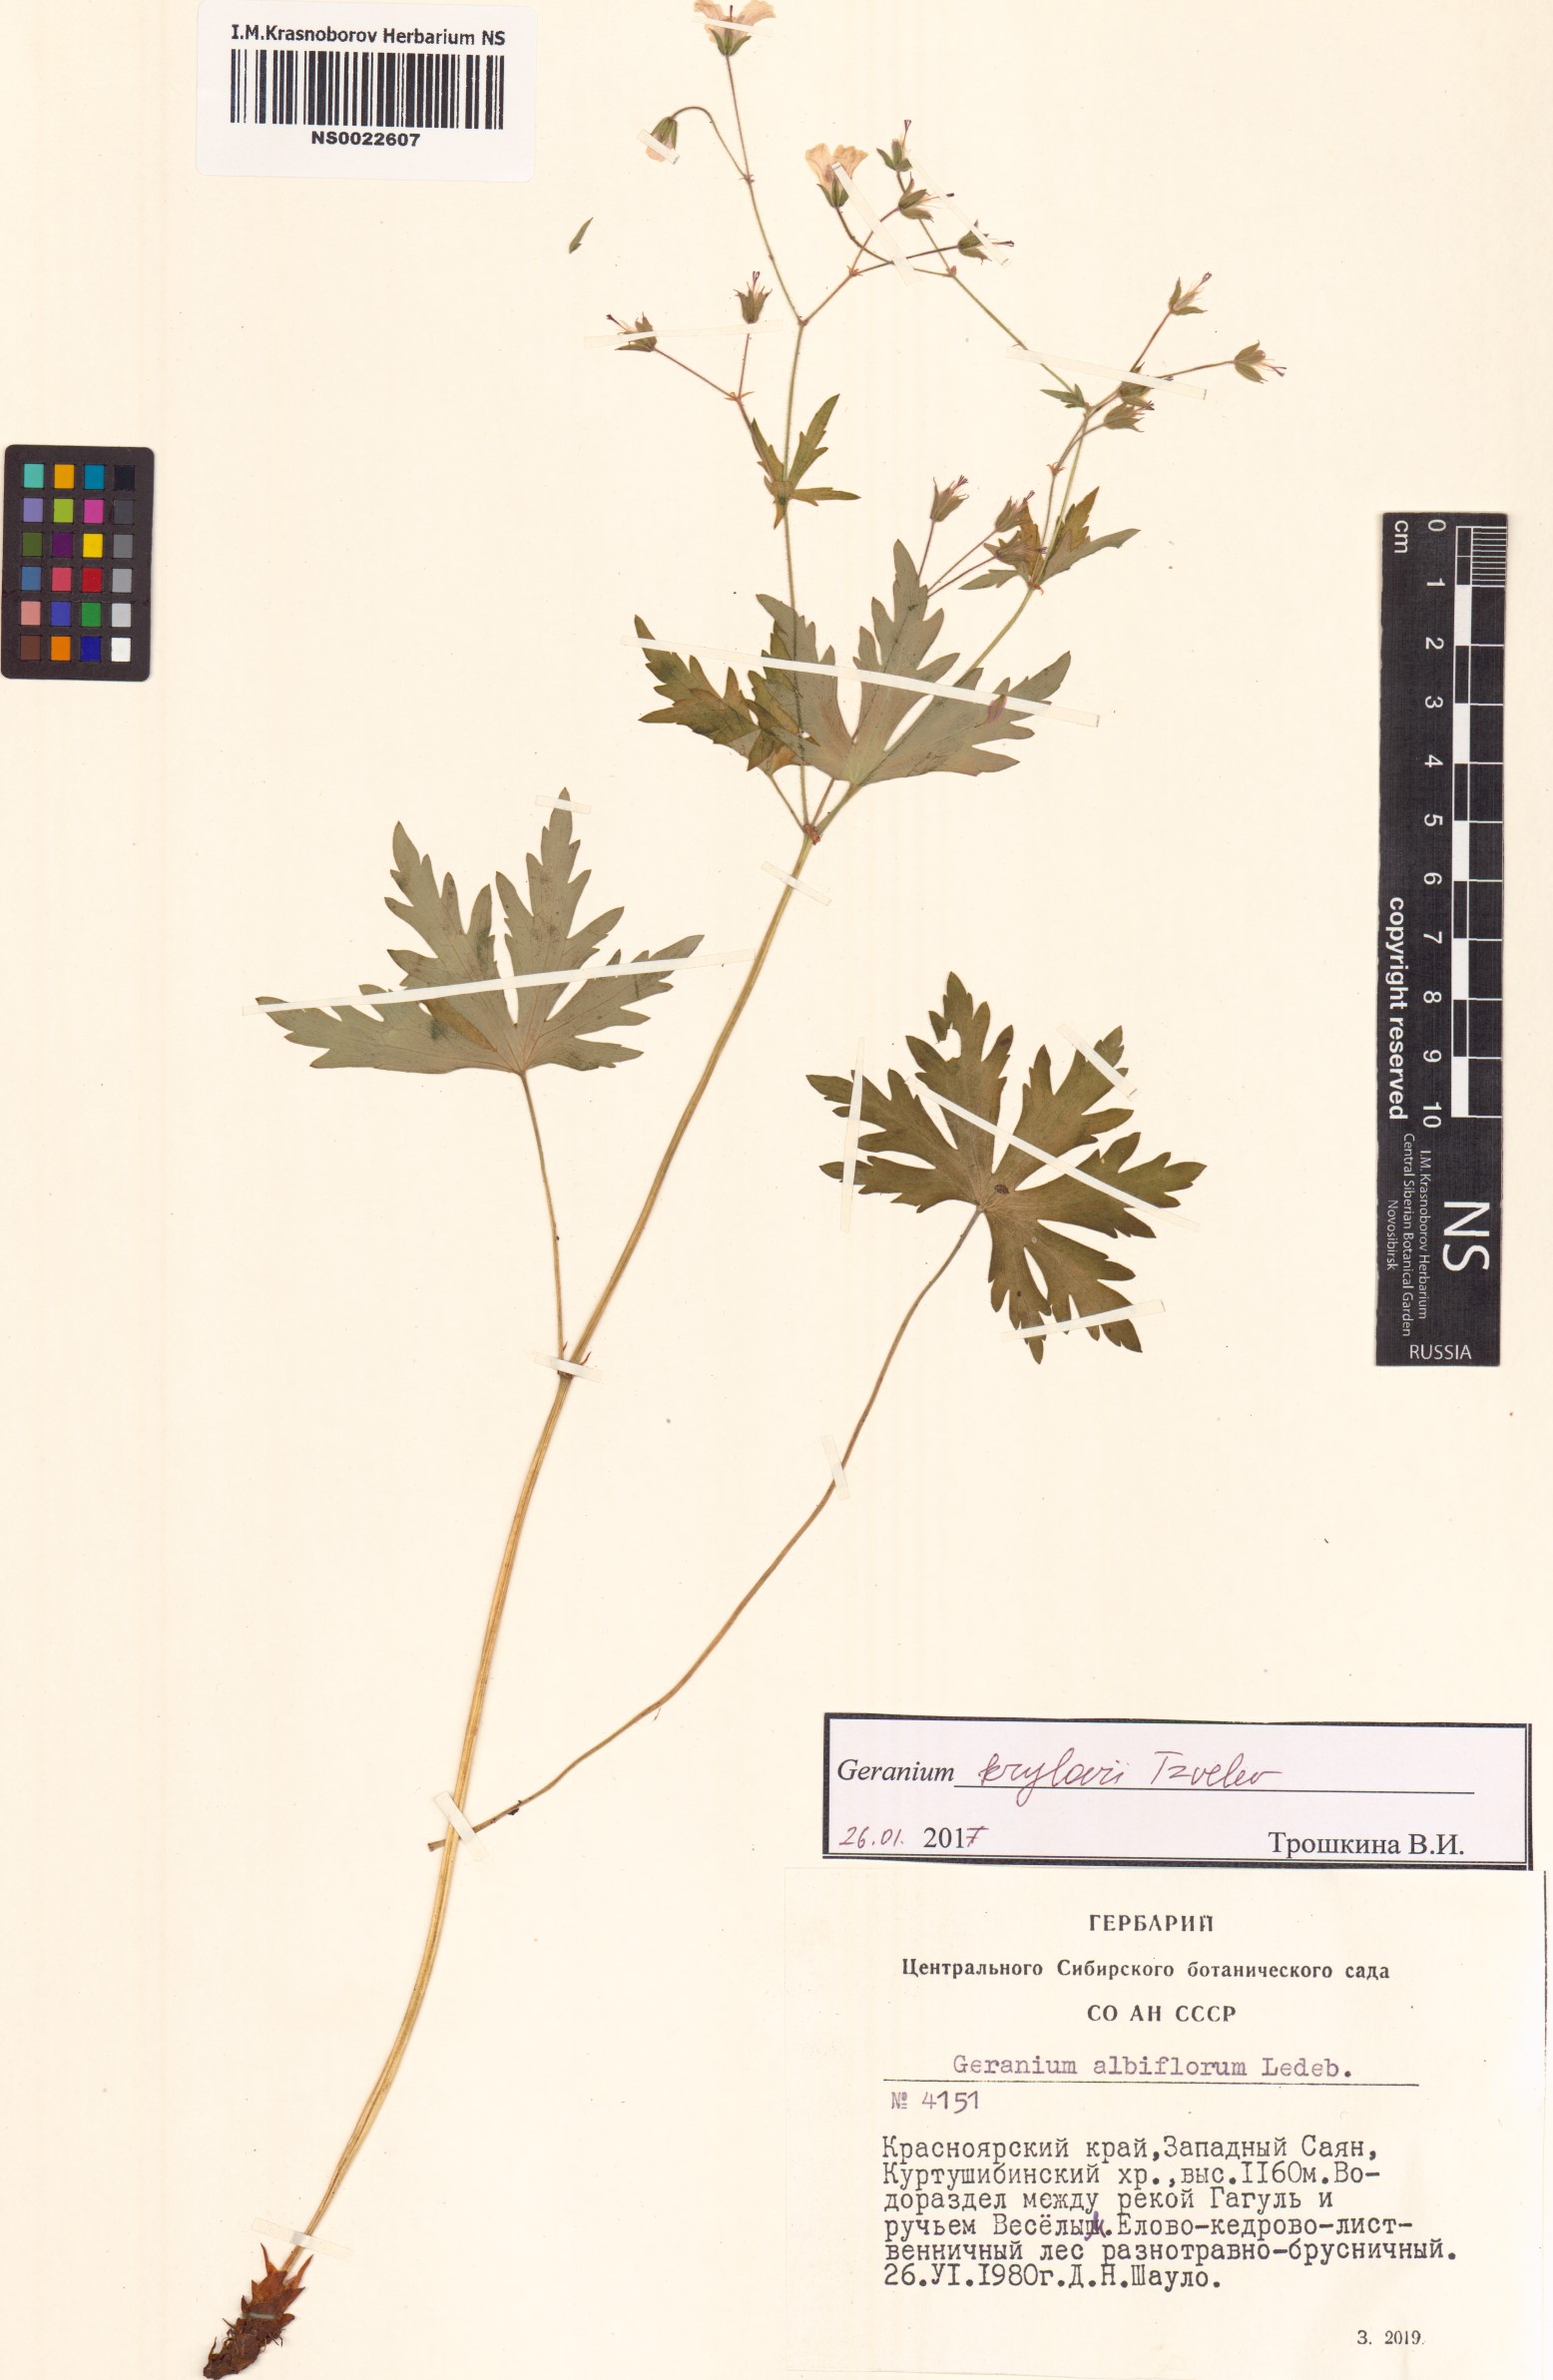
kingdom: Plantae
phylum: Tracheophyta
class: Magnoliopsida
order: Geraniales
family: Geraniaceae
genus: Geranium
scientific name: Geranium sylvaticum
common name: Wood crane's-bill
